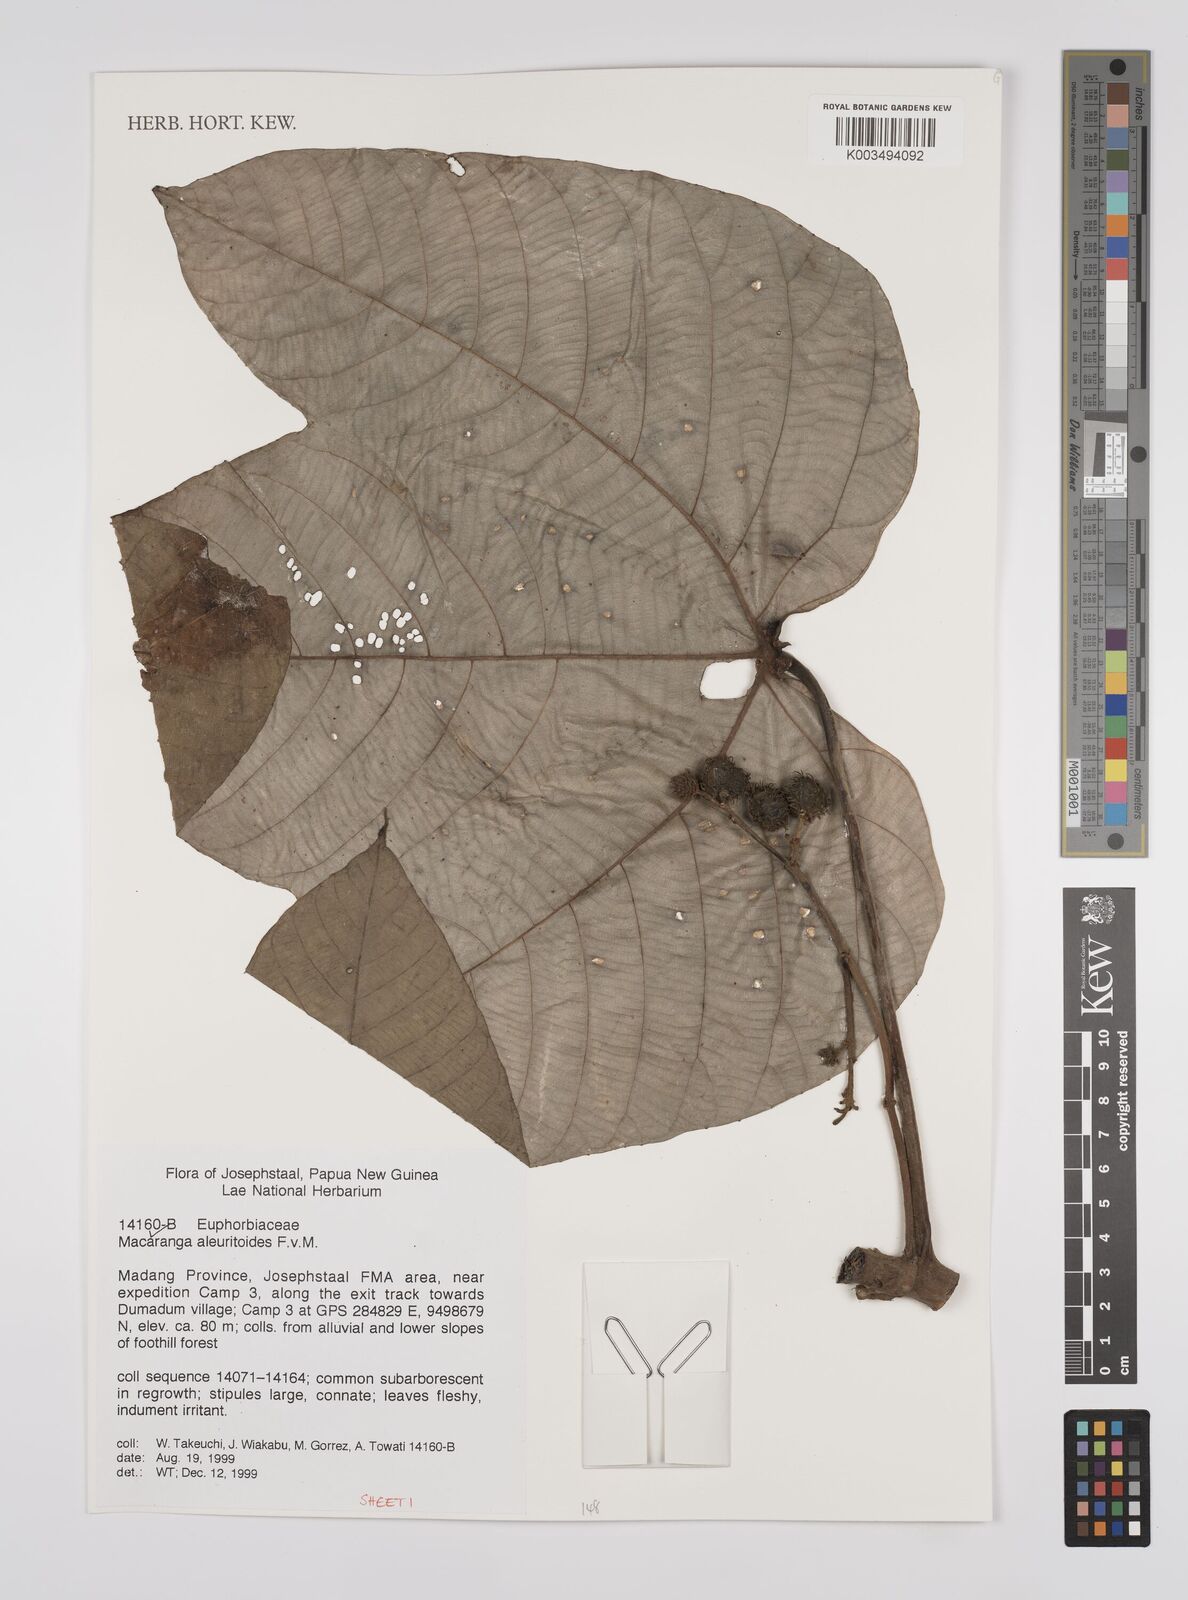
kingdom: Plantae
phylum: Tracheophyta
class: Magnoliopsida
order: Malpighiales
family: Euphorbiaceae
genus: Macaranga
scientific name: Macaranga aleuritoides
